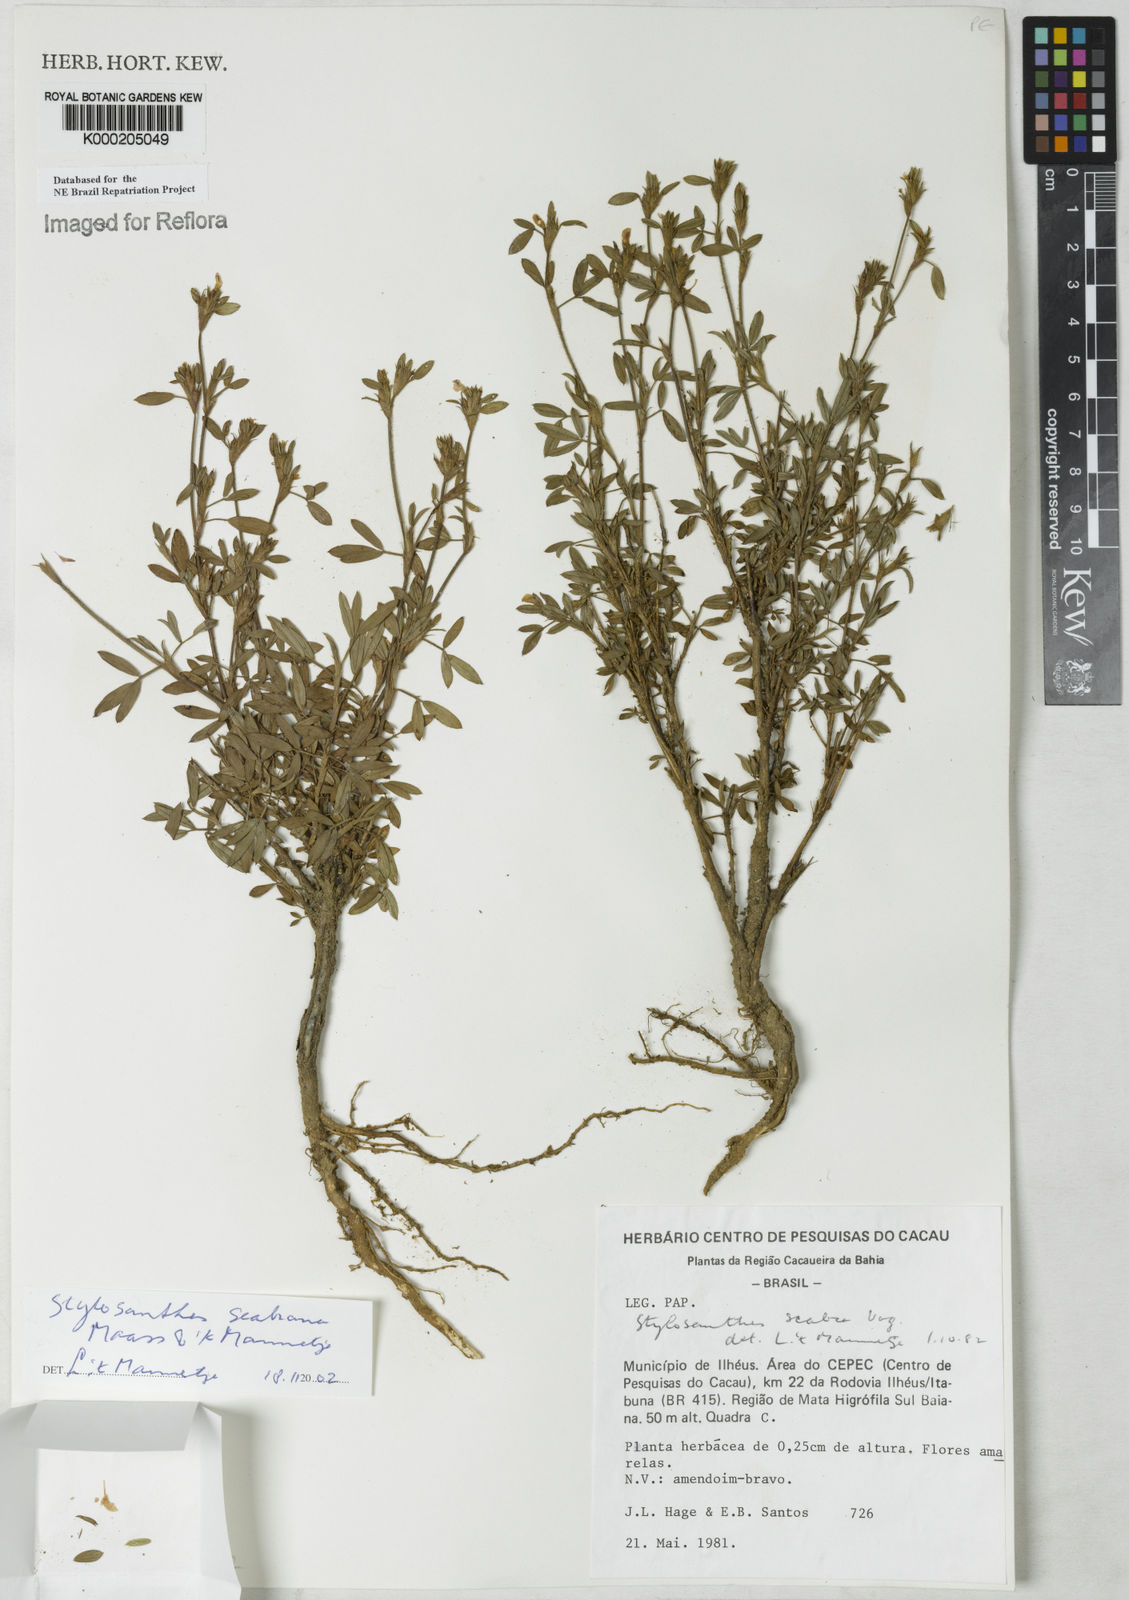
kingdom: Plantae
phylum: Tracheophyta
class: Magnoliopsida
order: Fabales
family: Fabaceae
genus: Stylosanthes
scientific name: Stylosanthes scabra
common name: Pencilflower
